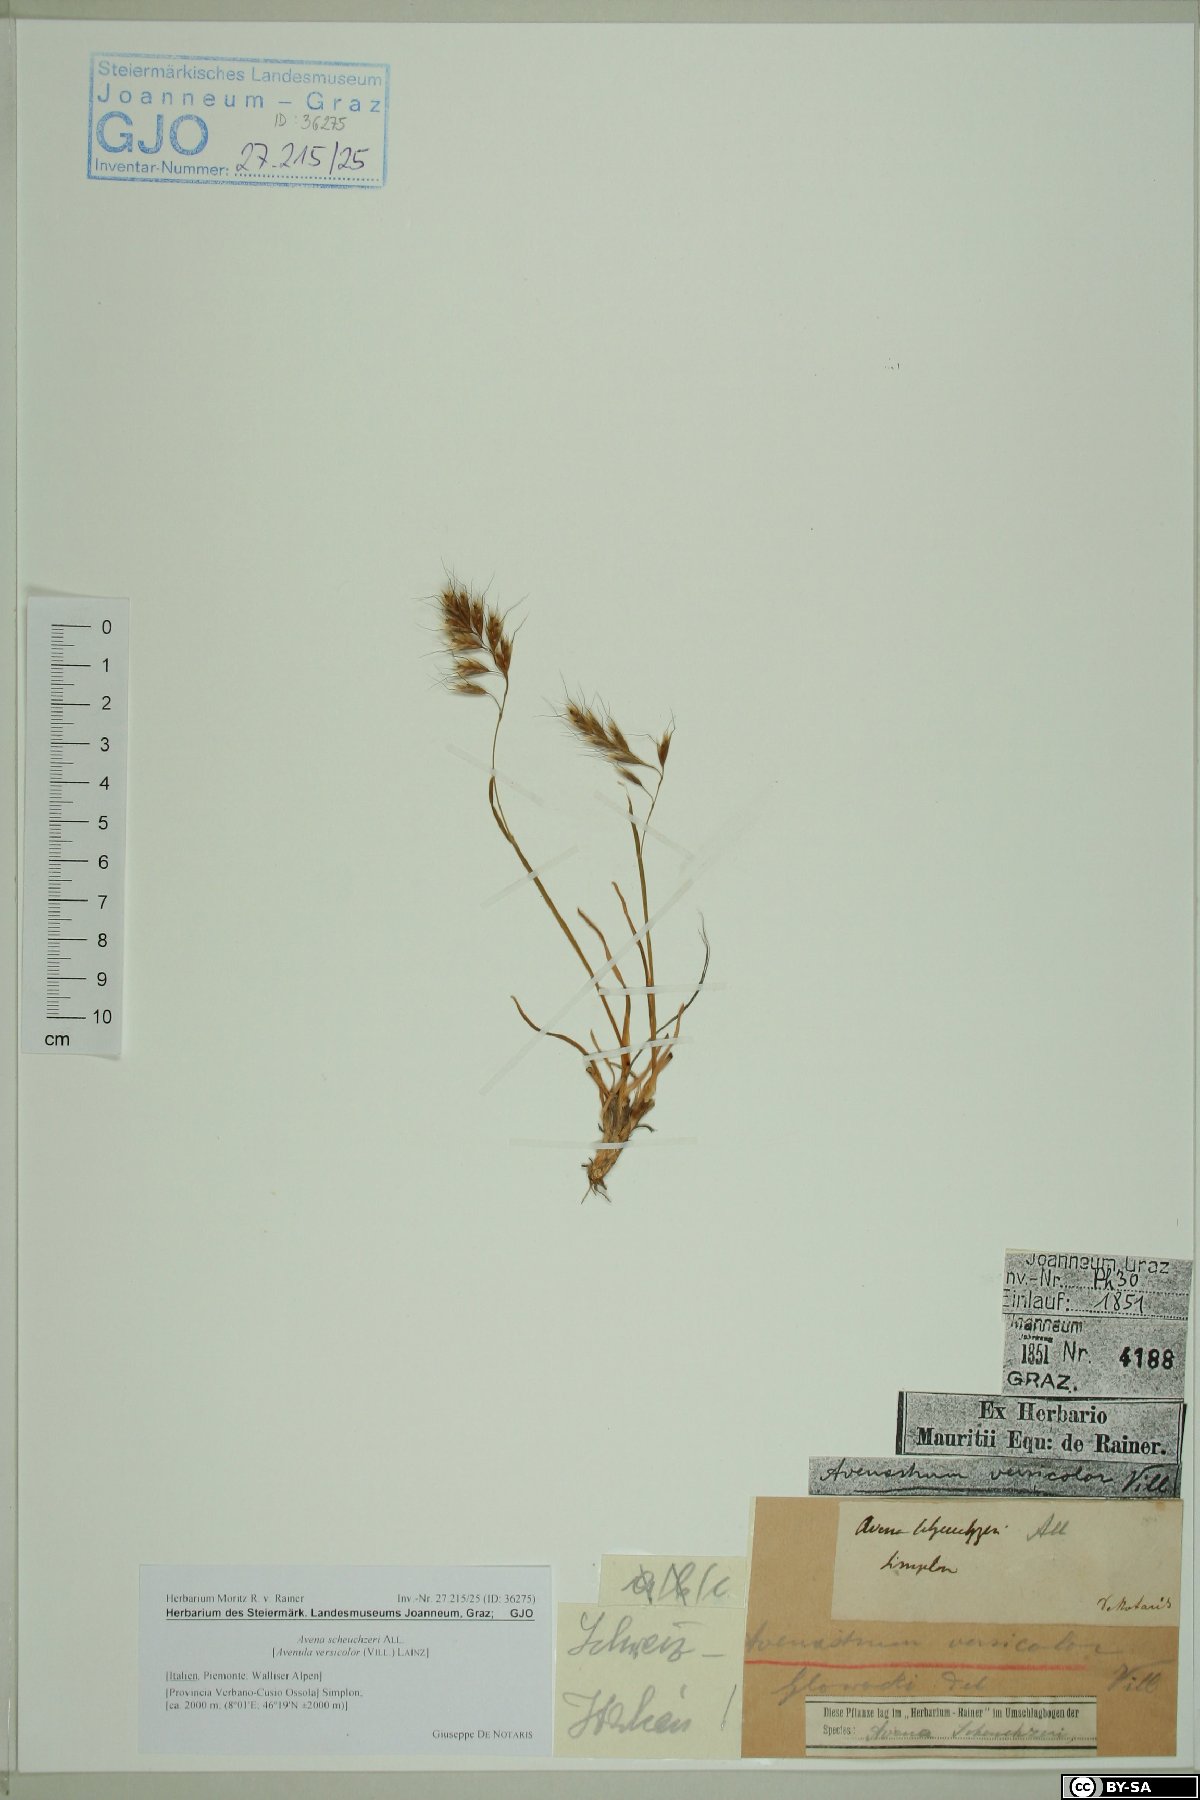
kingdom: Plantae
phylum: Tracheophyta
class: Liliopsida
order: Poales
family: Poaceae
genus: Helictochloa
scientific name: Helictochloa versicolor
